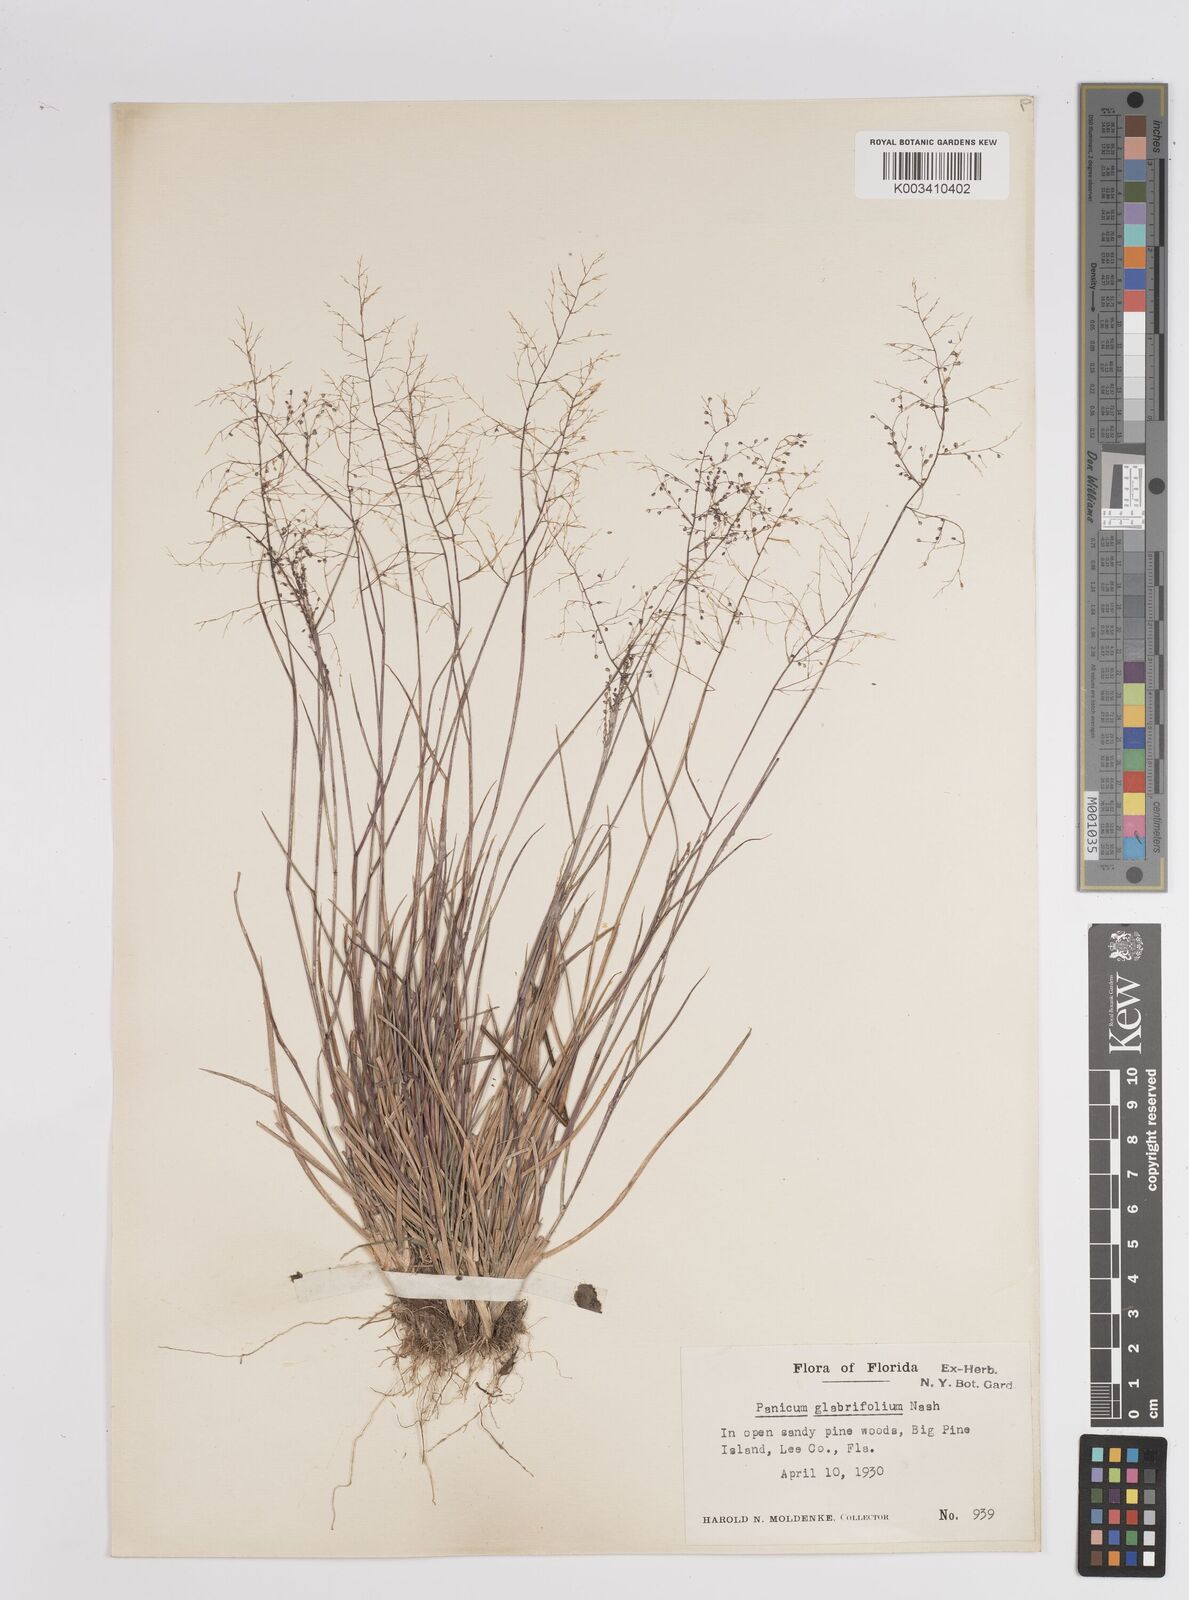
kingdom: Plantae
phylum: Tracheophyta
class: Liliopsida
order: Poales
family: Poaceae
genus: Dichanthelium
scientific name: Dichanthelium glabrifolium
